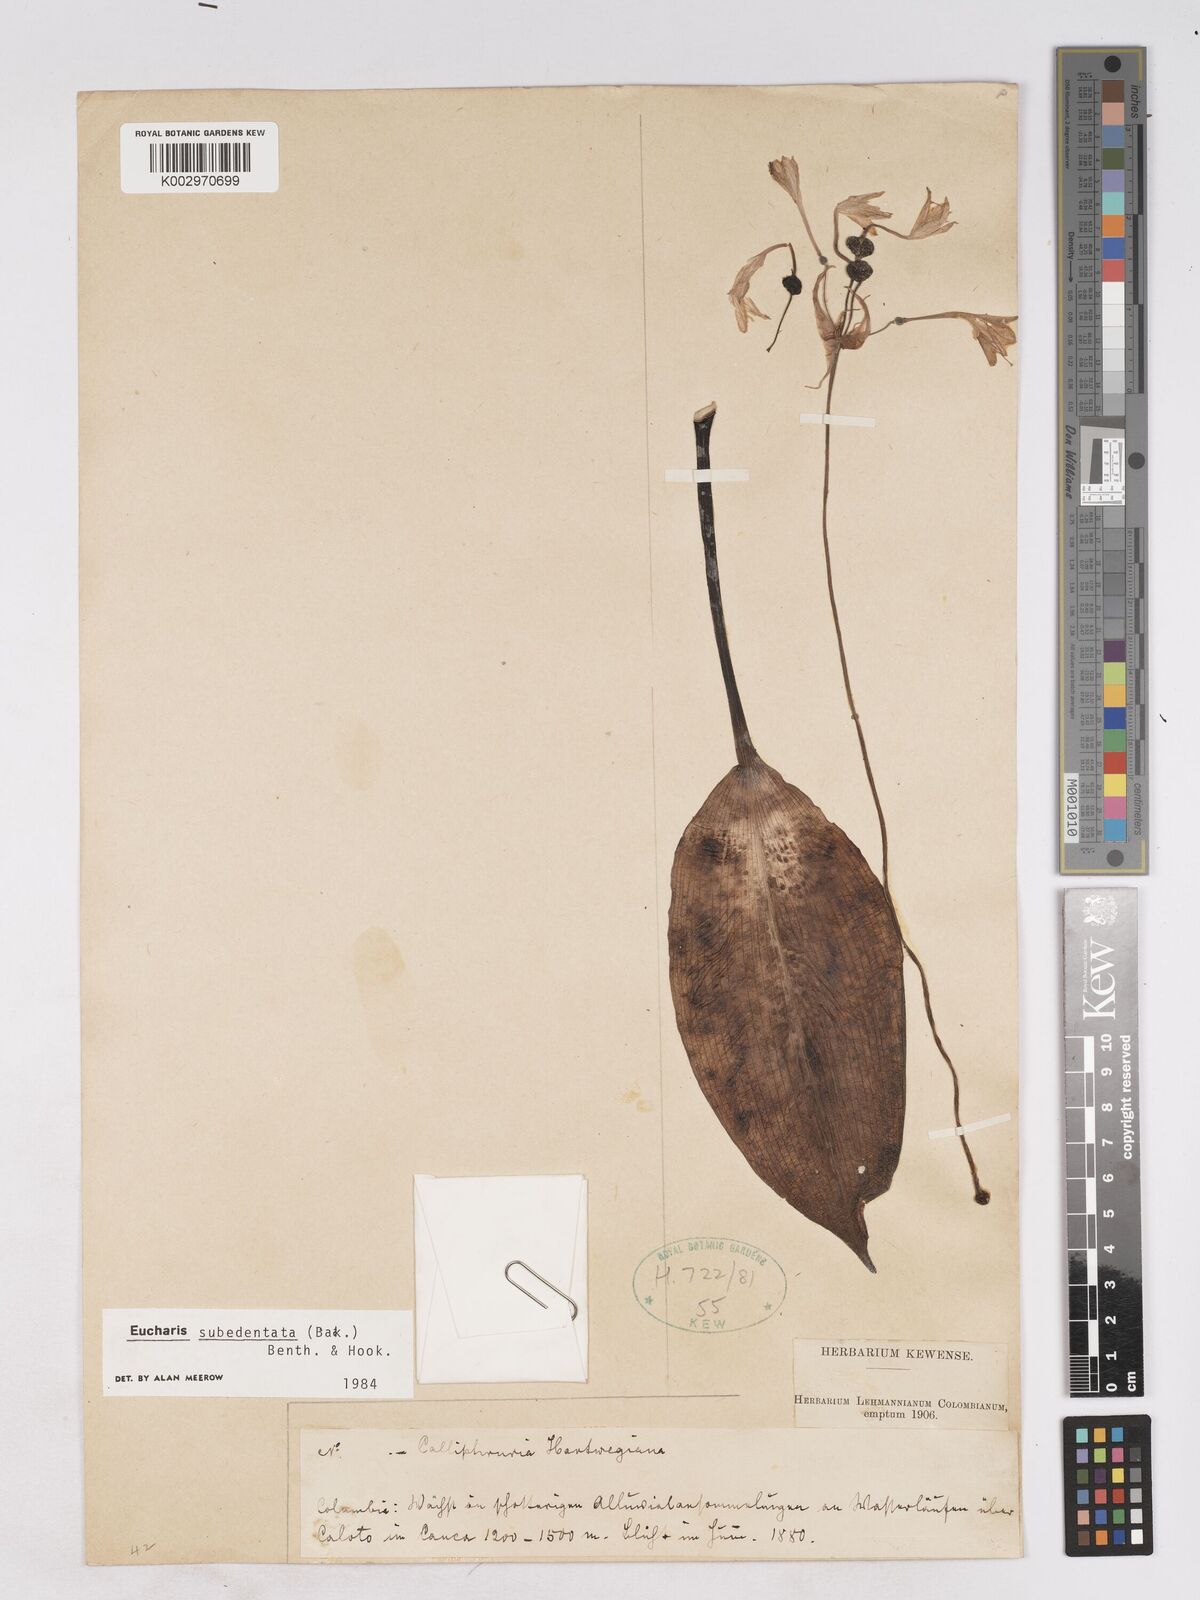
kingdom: Plantae
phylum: Tracheophyta
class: Liliopsida
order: Asparagales
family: Amaryllidaceae
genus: Urceolina
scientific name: Urceolina subedentata
